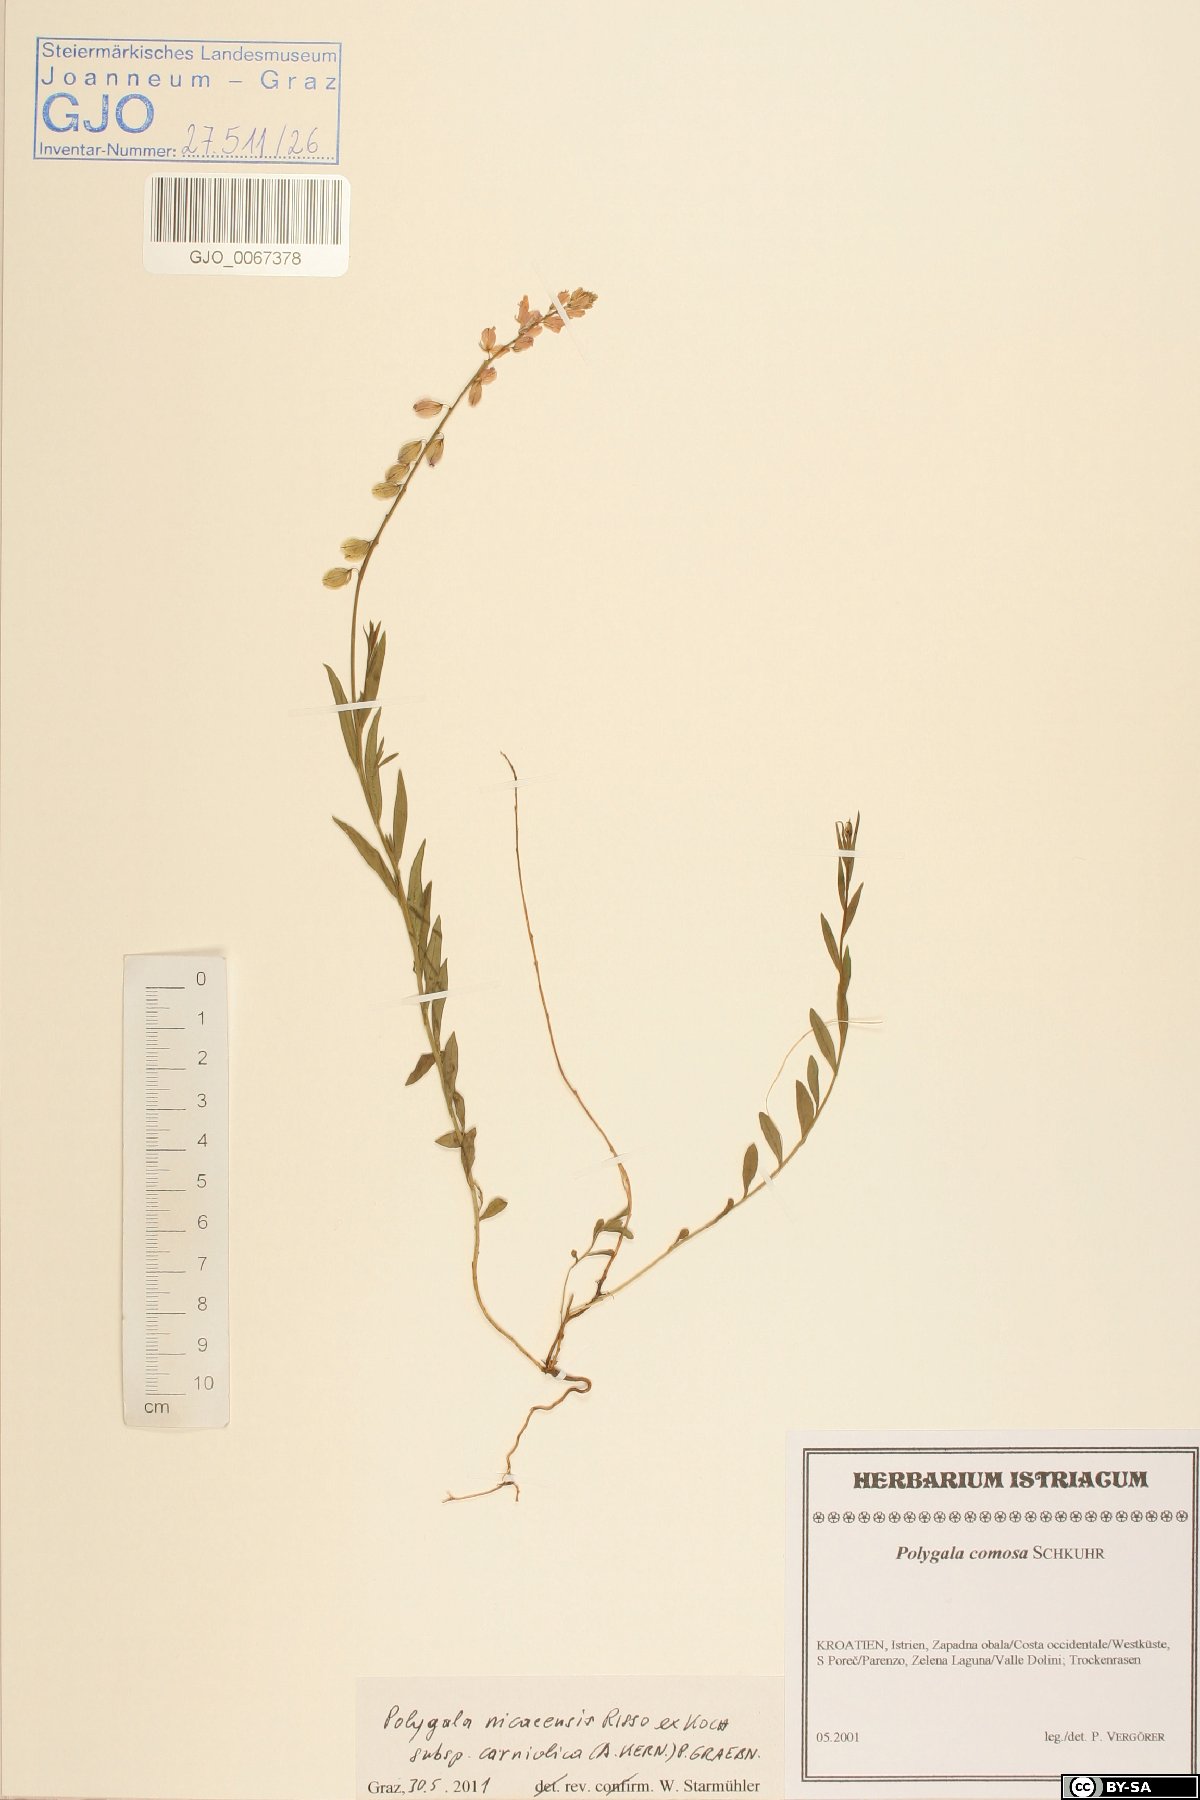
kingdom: Plantae
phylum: Tracheophyta
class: Magnoliopsida
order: Fabales
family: Polygalaceae
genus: Polygala
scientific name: Polygala
